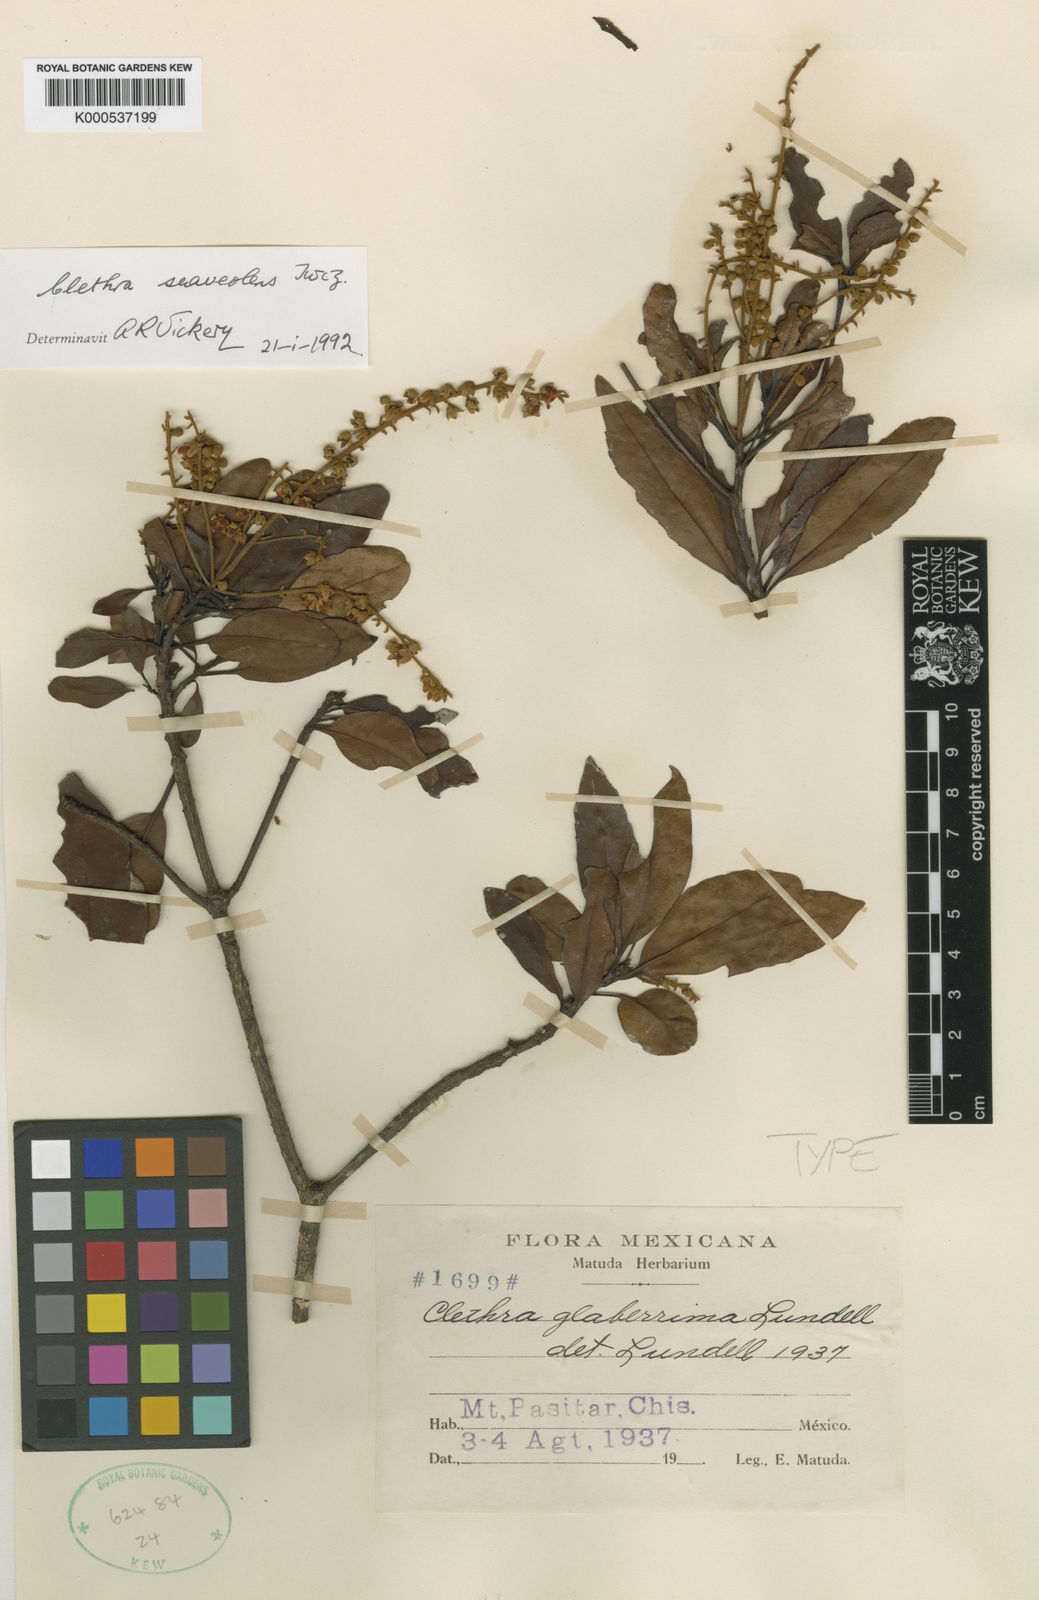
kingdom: Plantae
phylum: Tracheophyta
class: Magnoliopsida
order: Ericales
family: Clethraceae
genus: Clethra
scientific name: Clethra suaveolens
